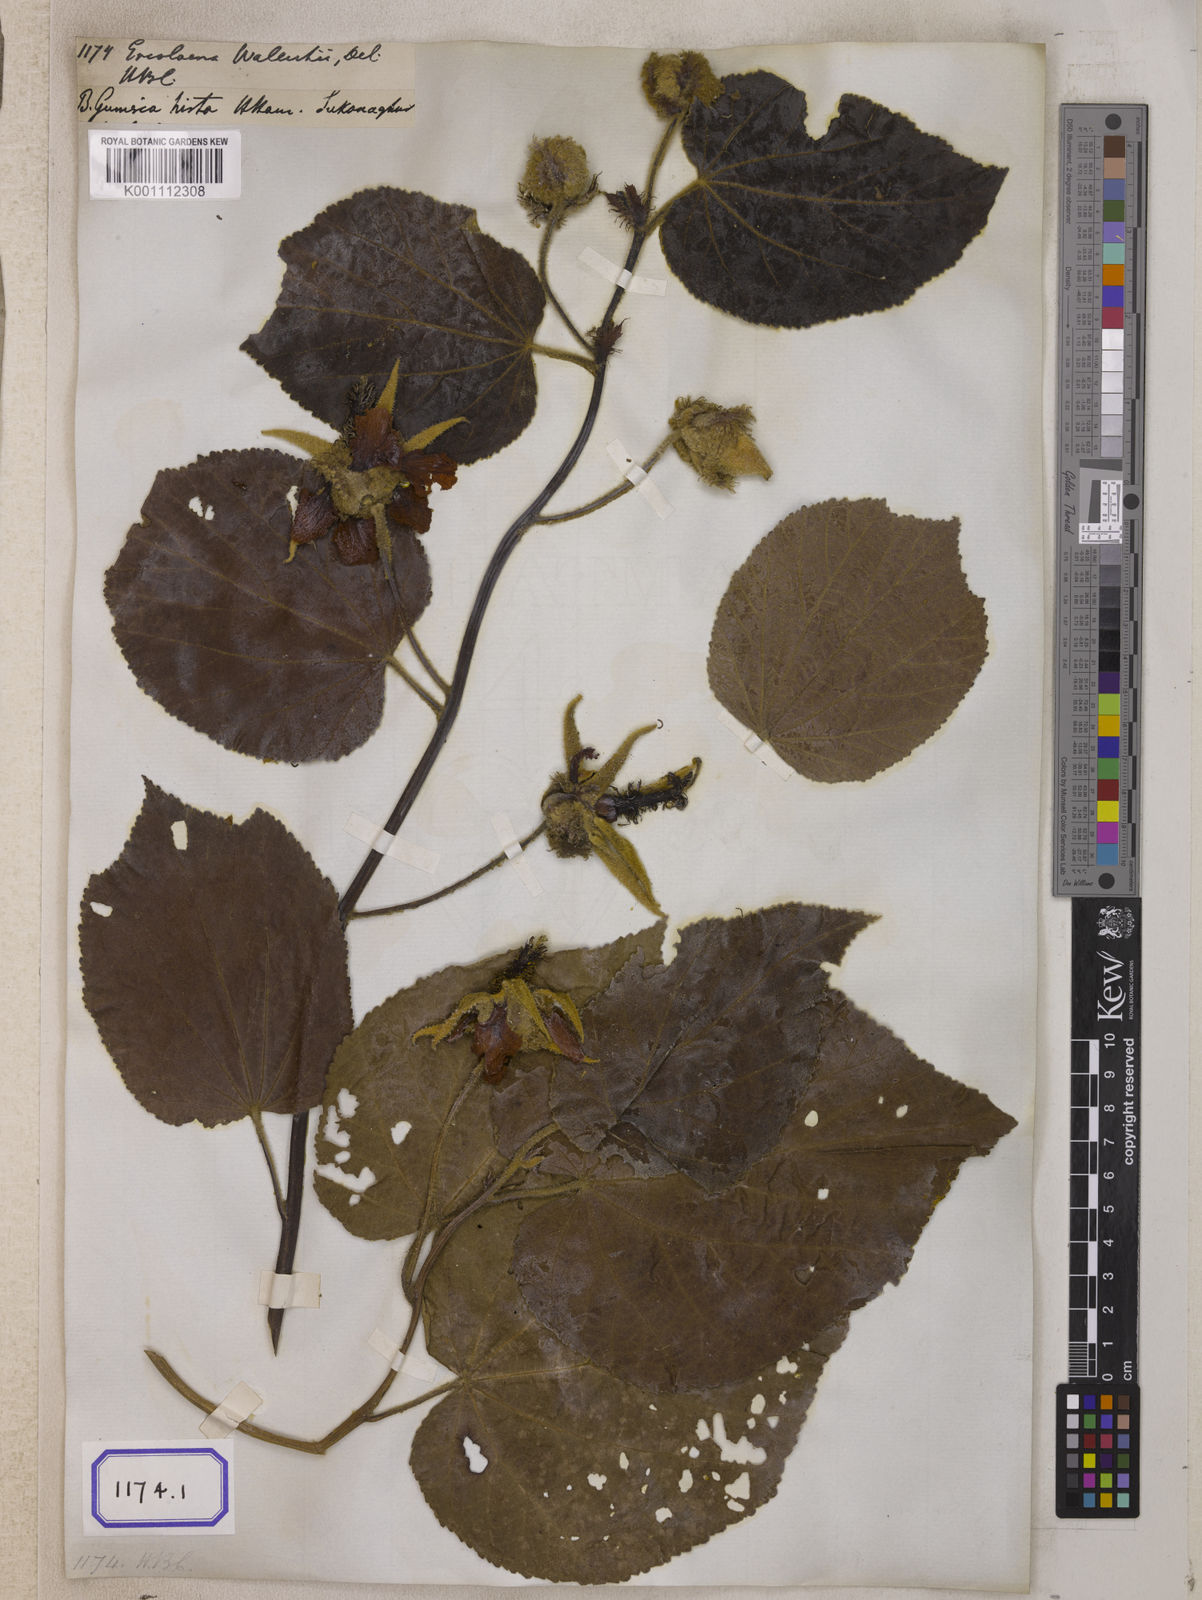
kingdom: Plantae
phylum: Tracheophyta
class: Magnoliopsida
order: Malvales
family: Malvaceae
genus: Eriolaena
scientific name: Eriolaena wallichii
